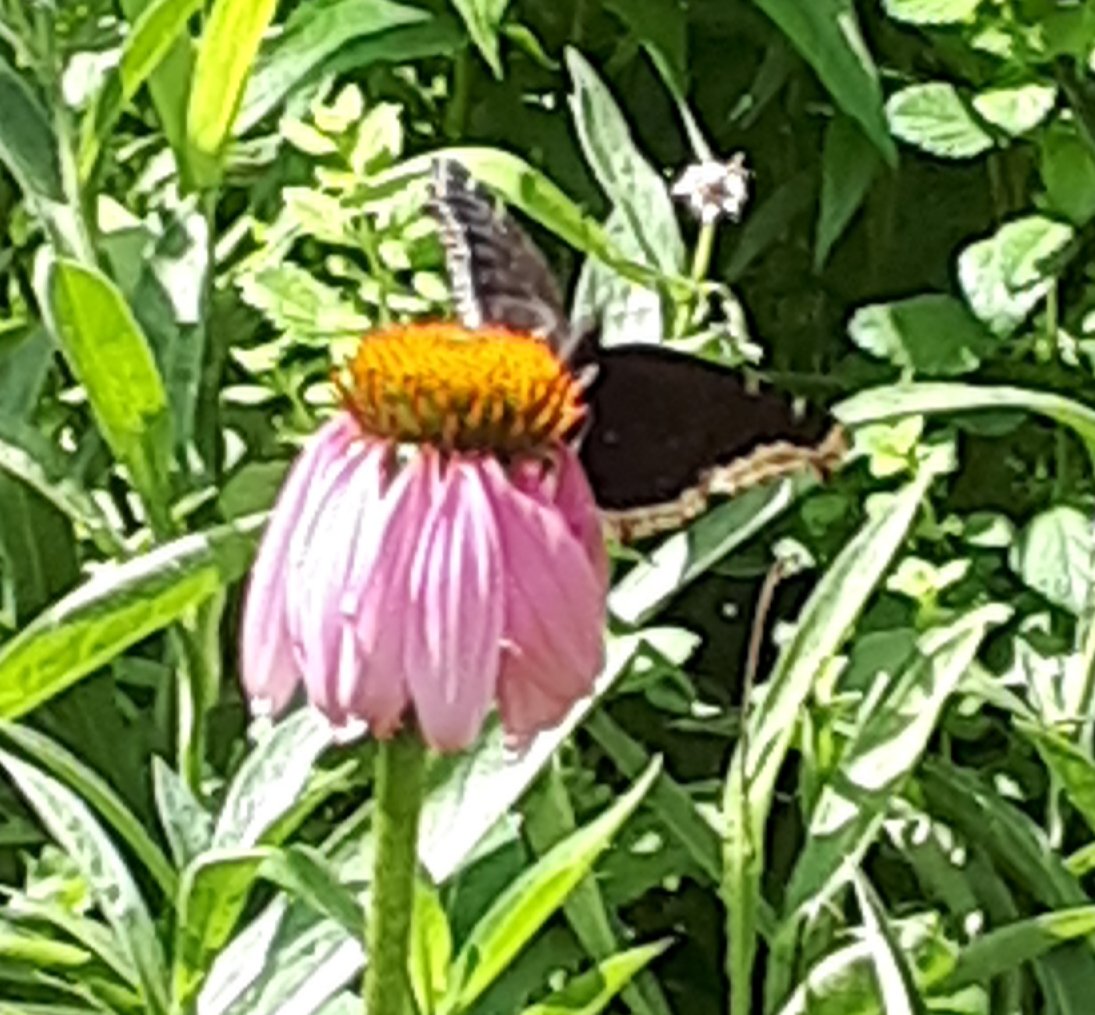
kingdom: Animalia
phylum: Arthropoda
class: Insecta
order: Lepidoptera
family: Nymphalidae
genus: Nymphalis
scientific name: Nymphalis antiopa
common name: Mourning Cloak
